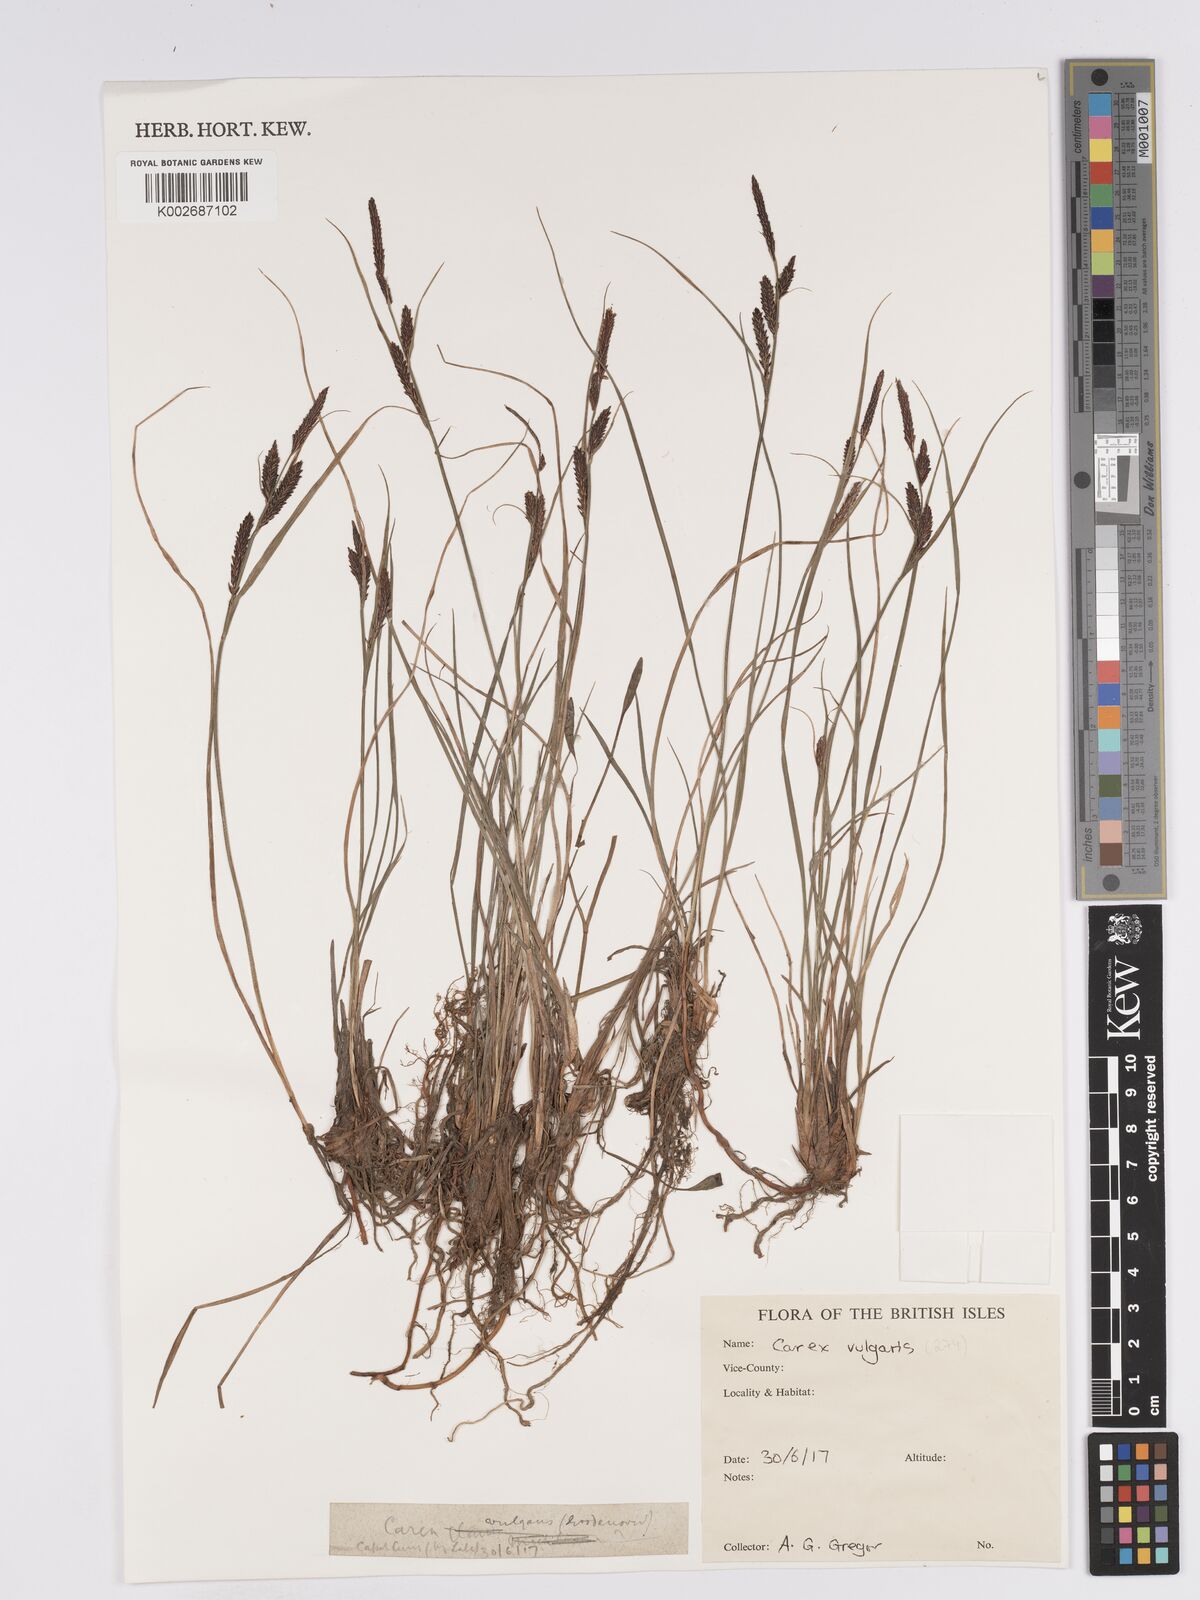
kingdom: Plantae
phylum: Tracheophyta
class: Liliopsida
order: Poales
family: Cyperaceae
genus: Carex
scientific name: Carex nigra
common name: Common sedge
